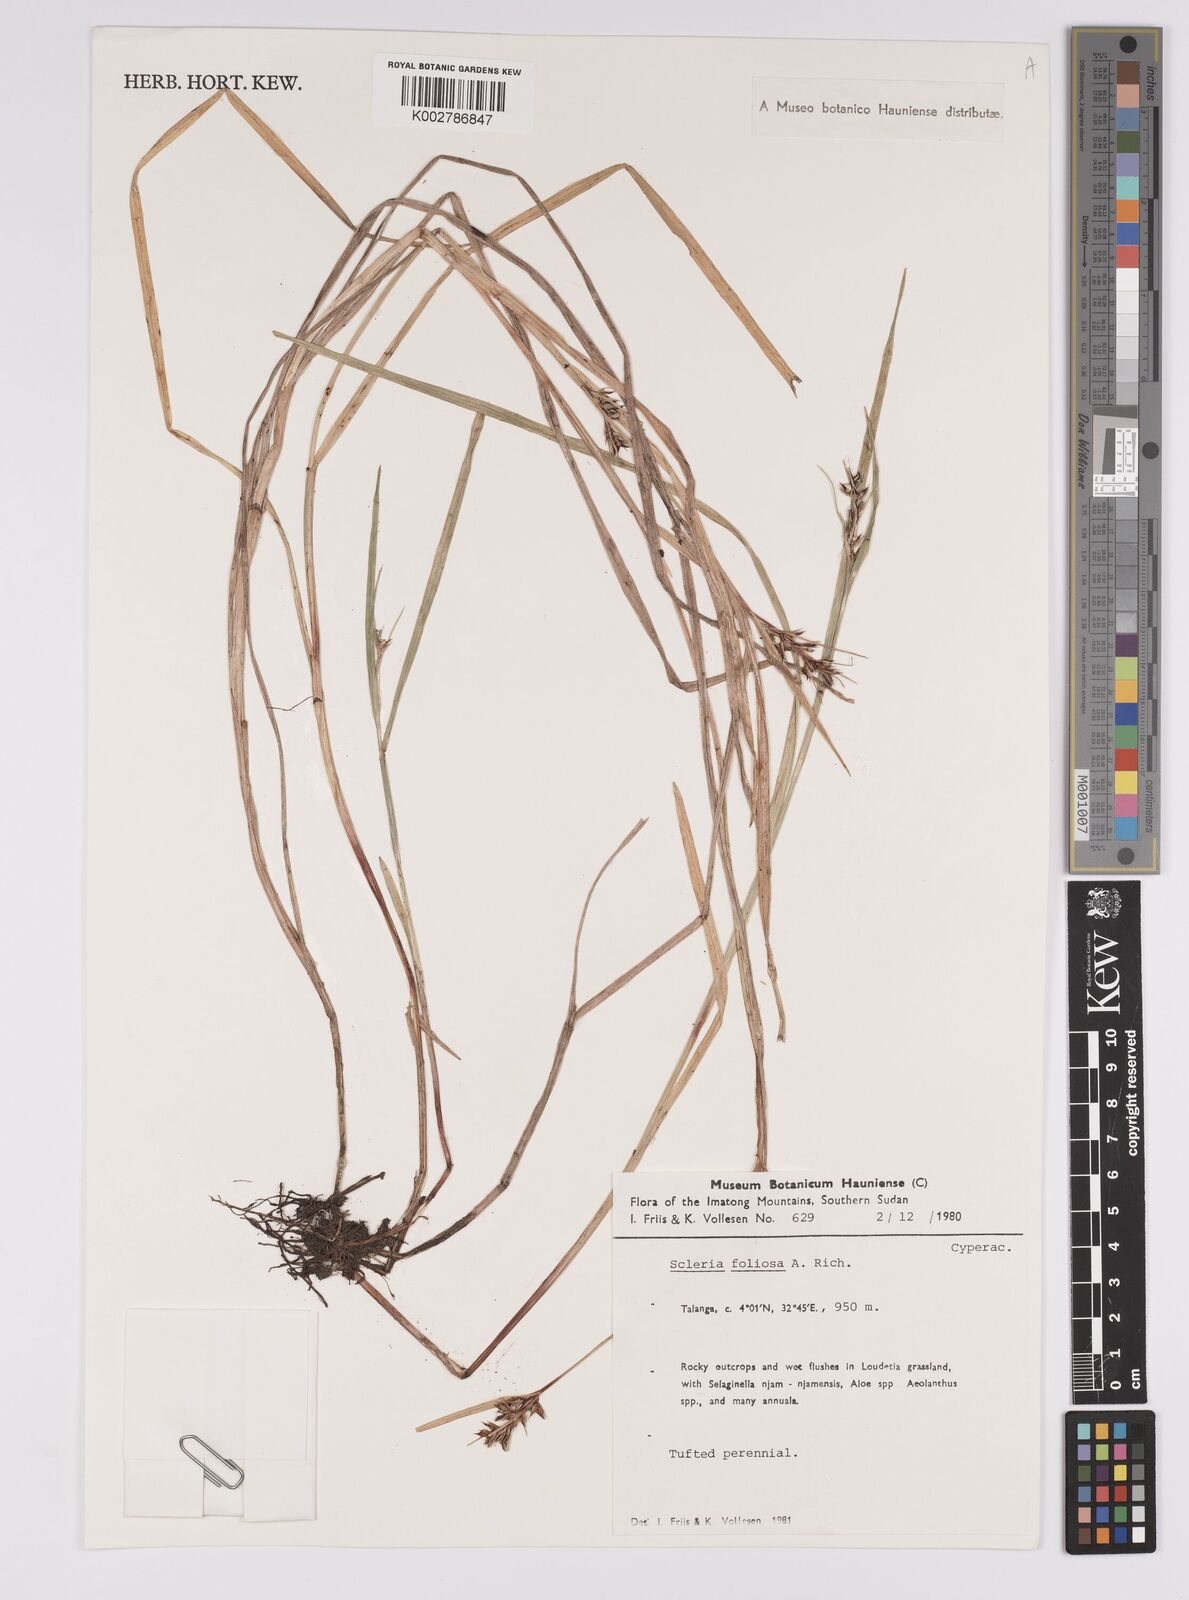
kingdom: Plantae
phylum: Tracheophyta
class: Liliopsida
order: Poales
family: Cyperaceae
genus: Scleria
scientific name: Scleria foliosa
